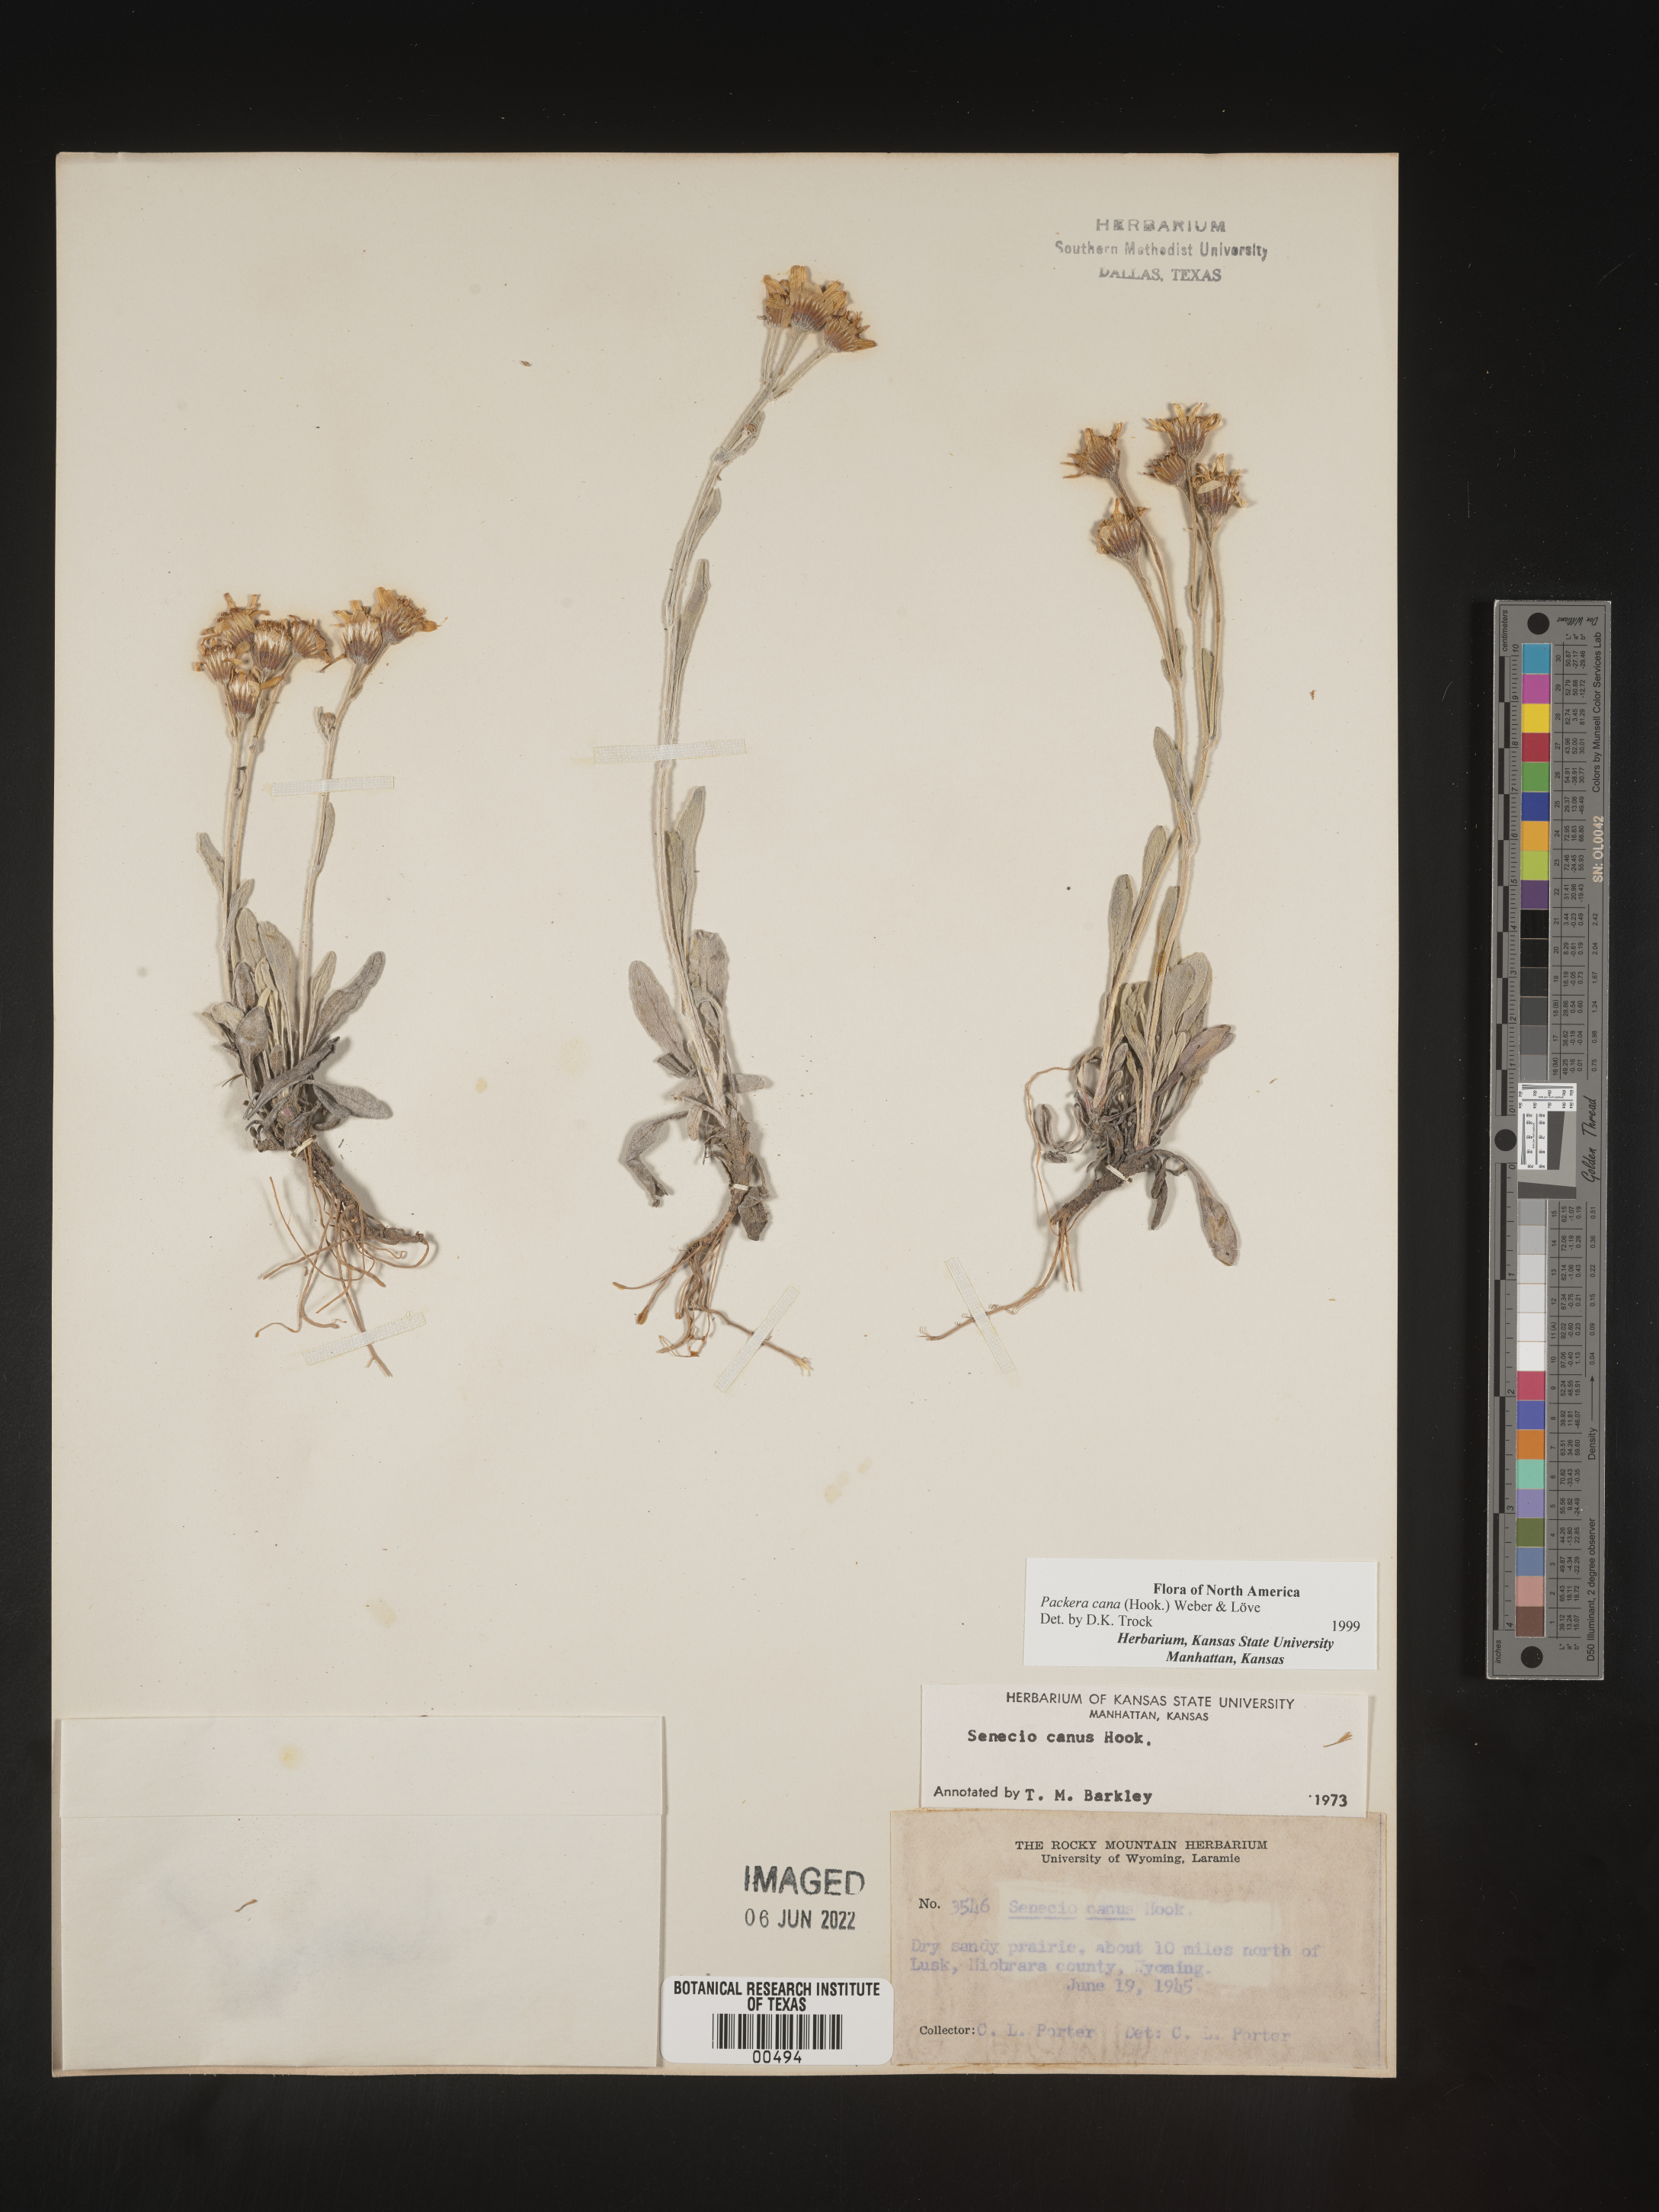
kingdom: Plantae
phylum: Tracheophyta
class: Magnoliopsida
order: Asterales
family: Asteraceae
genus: Packera
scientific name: Packera cana
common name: Woolly groundsel
